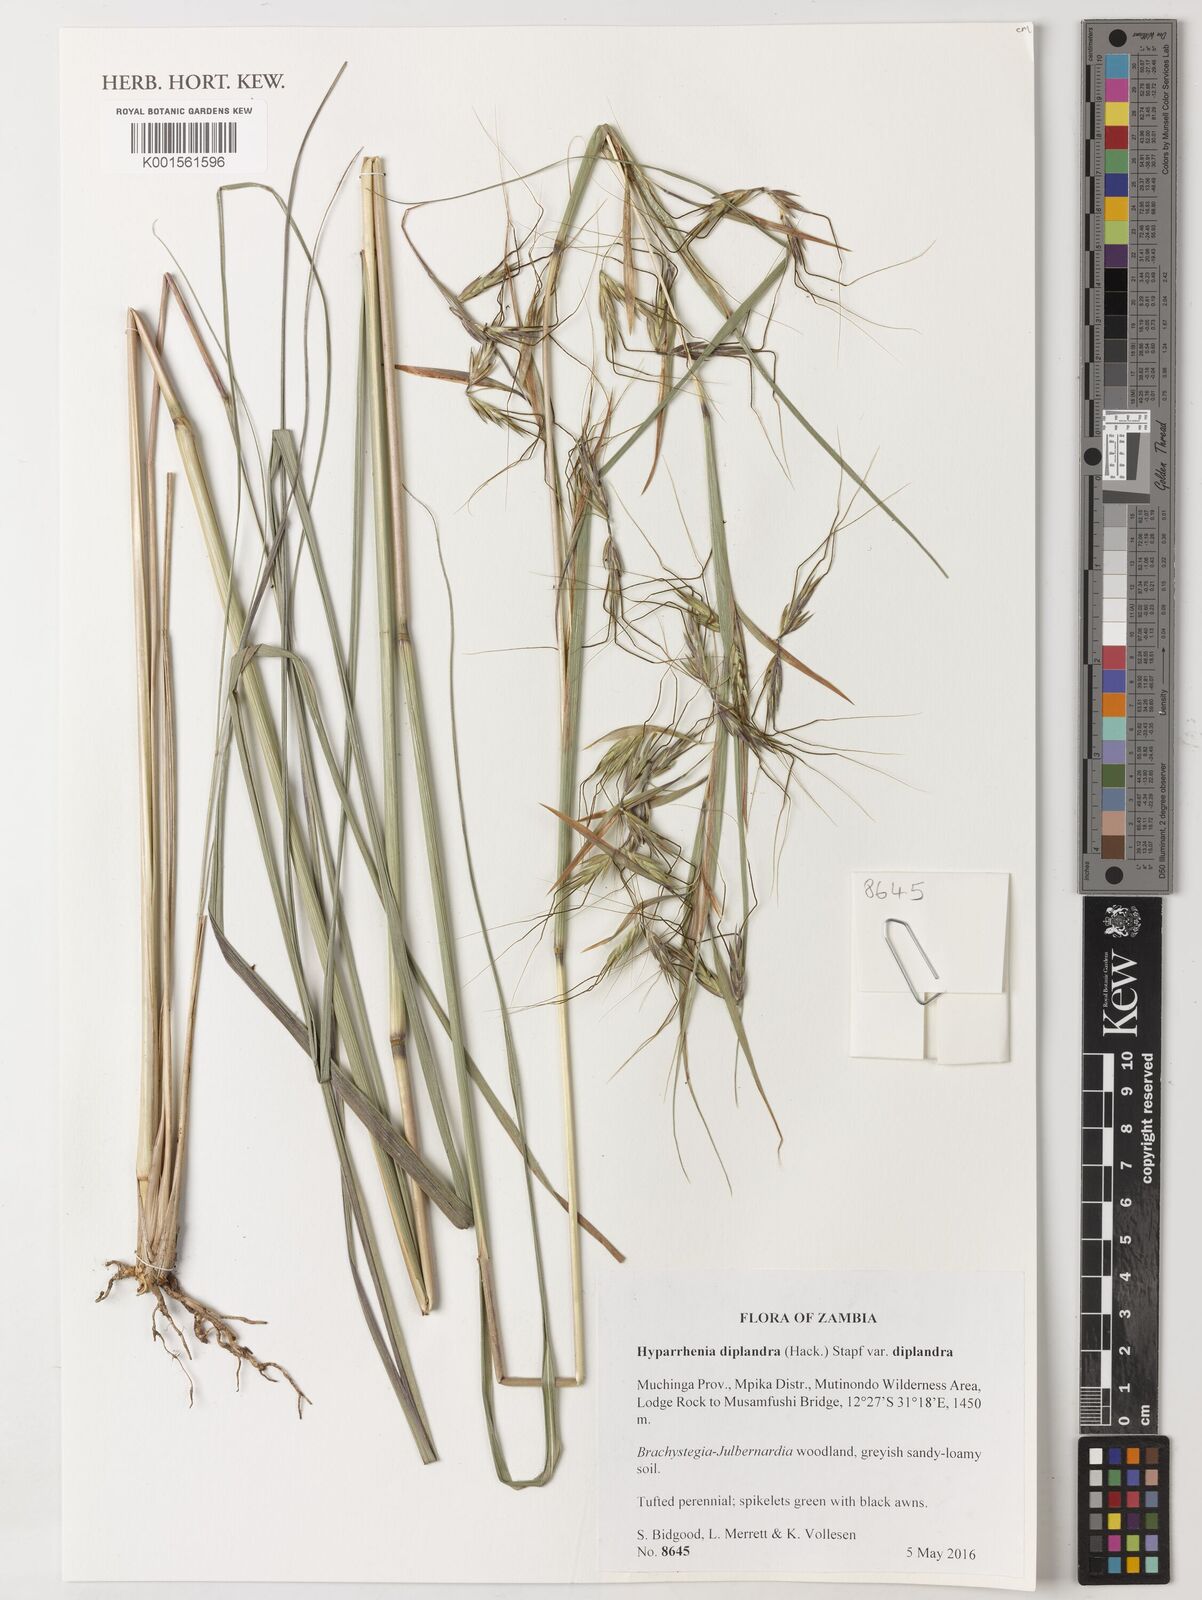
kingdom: Plantae
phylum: Tracheophyta
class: Liliopsida
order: Poales
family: Poaceae
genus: Hyparrhenia
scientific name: Hyparrhenia diplandra
